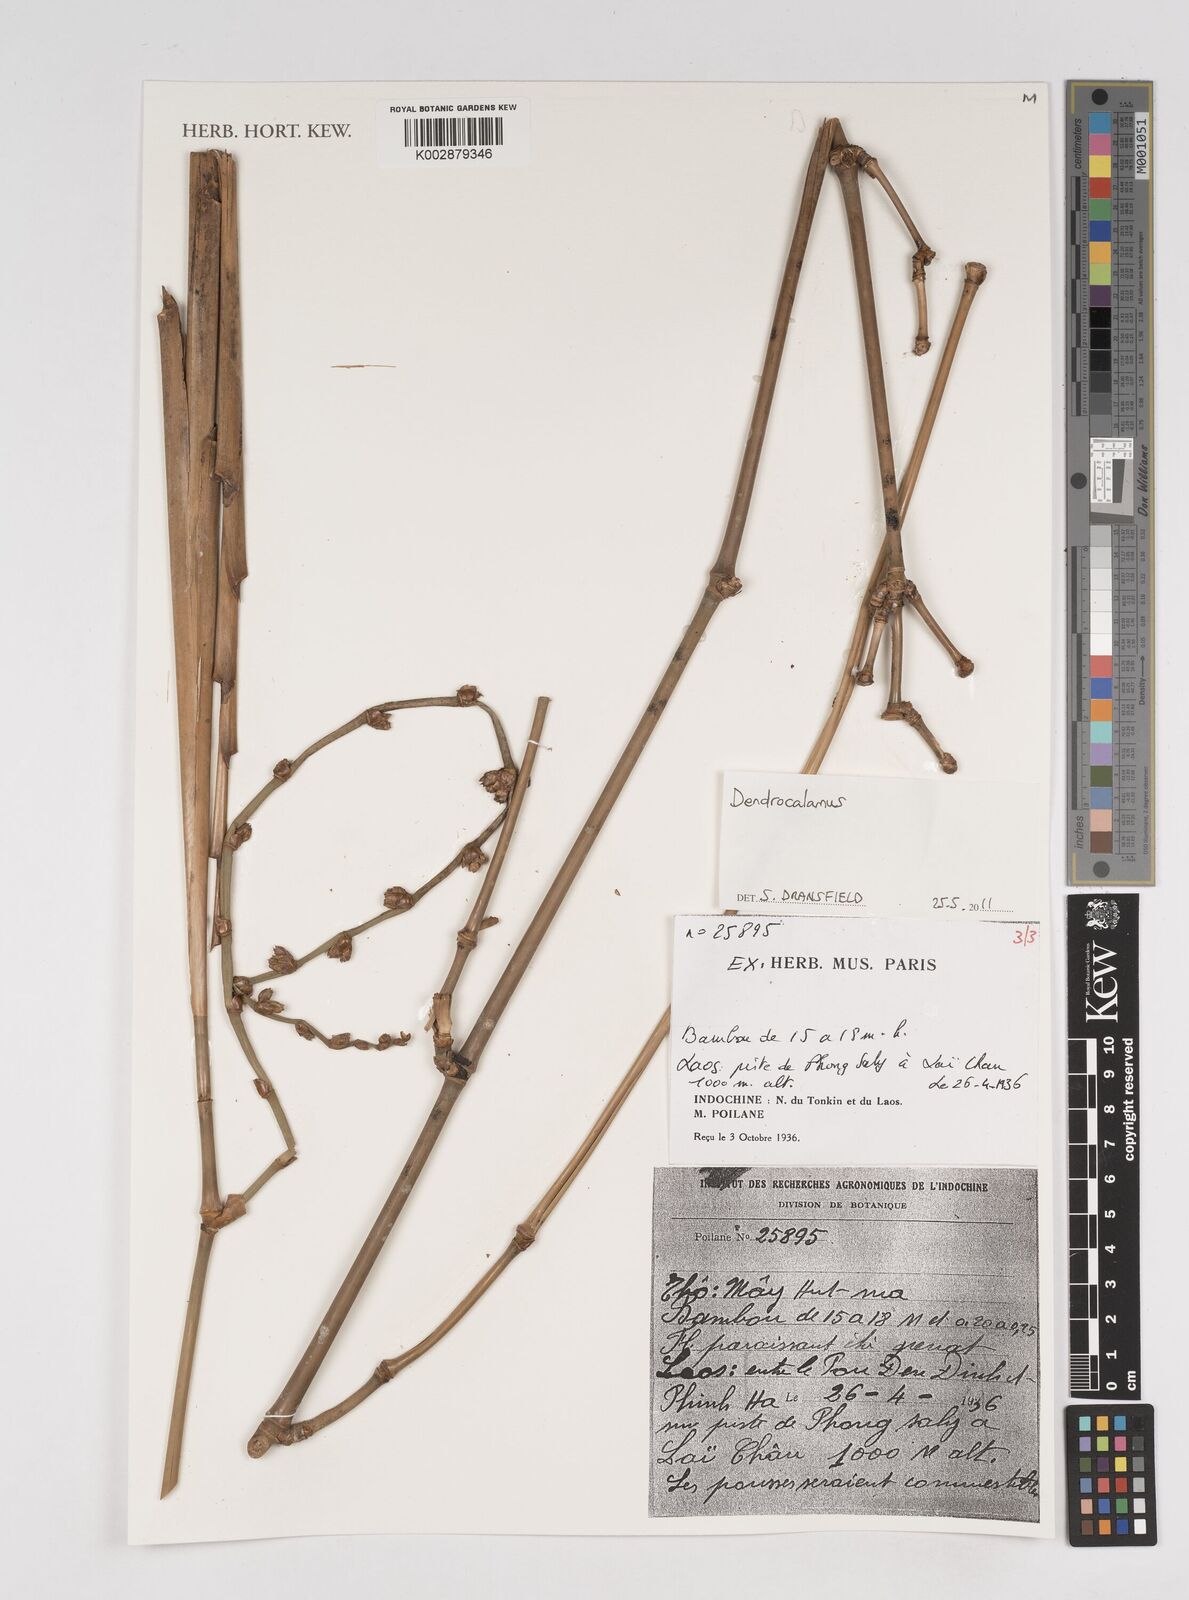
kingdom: Plantae
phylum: Tracheophyta
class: Liliopsida
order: Poales
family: Poaceae
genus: Dendrocalamus
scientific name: Dendrocalamus
